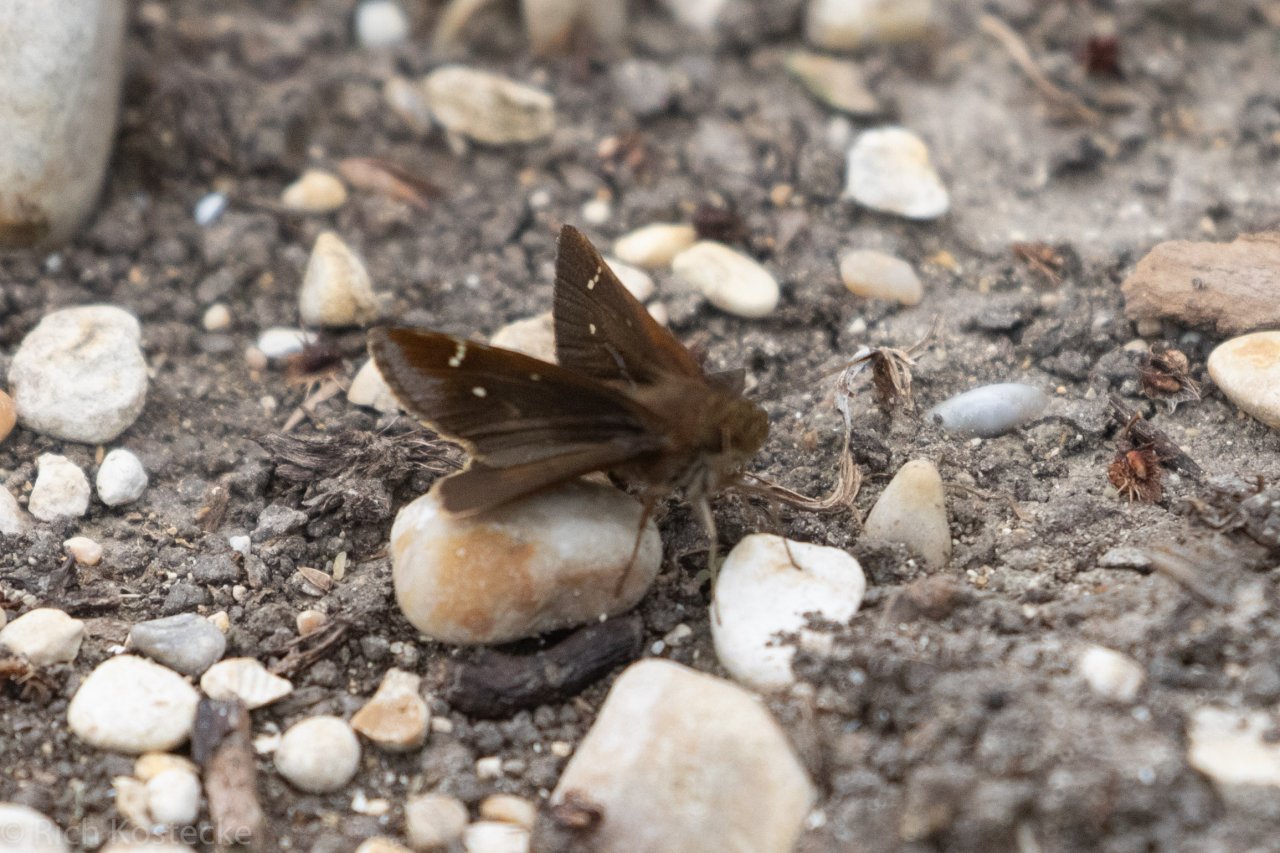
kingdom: Animalia
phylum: Arthropoda
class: Insecta
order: Lepidoptera
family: Hesperiidae
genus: Lerema
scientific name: Lerema accius
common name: Clouded Skipper
